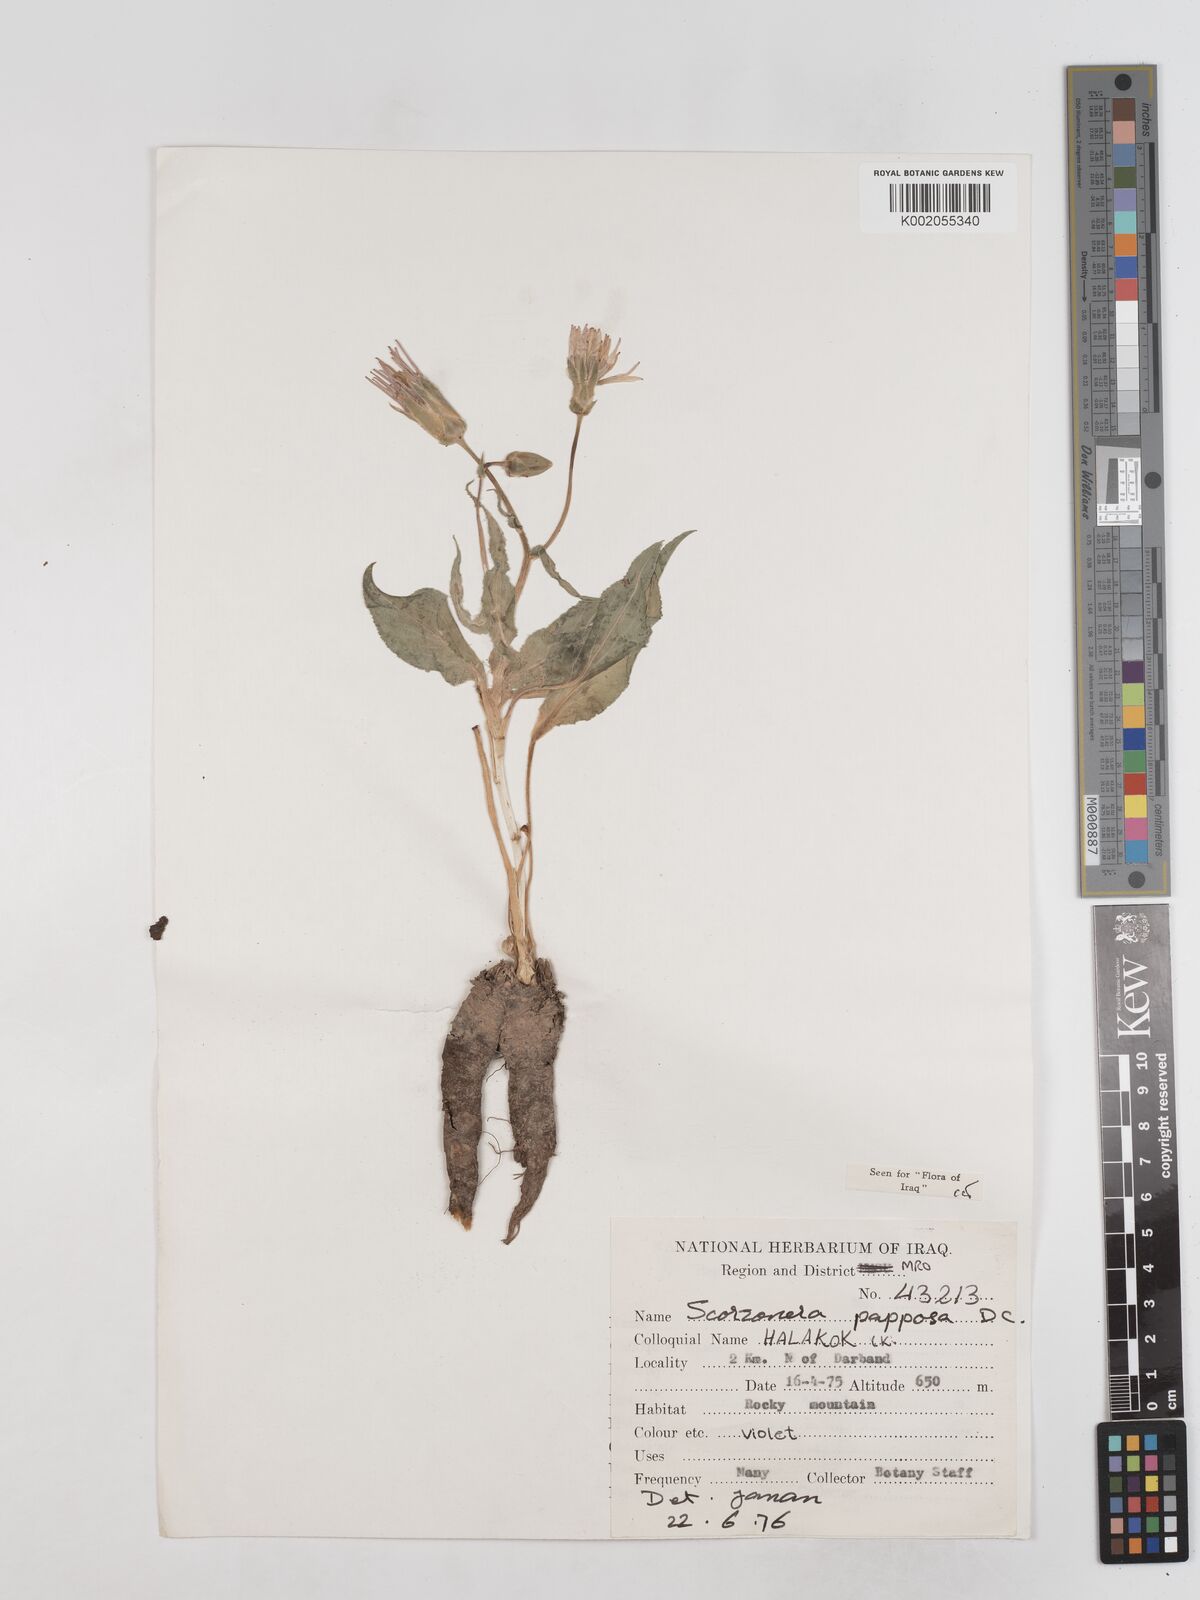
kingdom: Plantae
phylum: Tracheophyta
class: Magnoliopsida
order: Asterales
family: Asteraceae
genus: Pseudopodospermum
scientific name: Pseudopodospermum papposum
